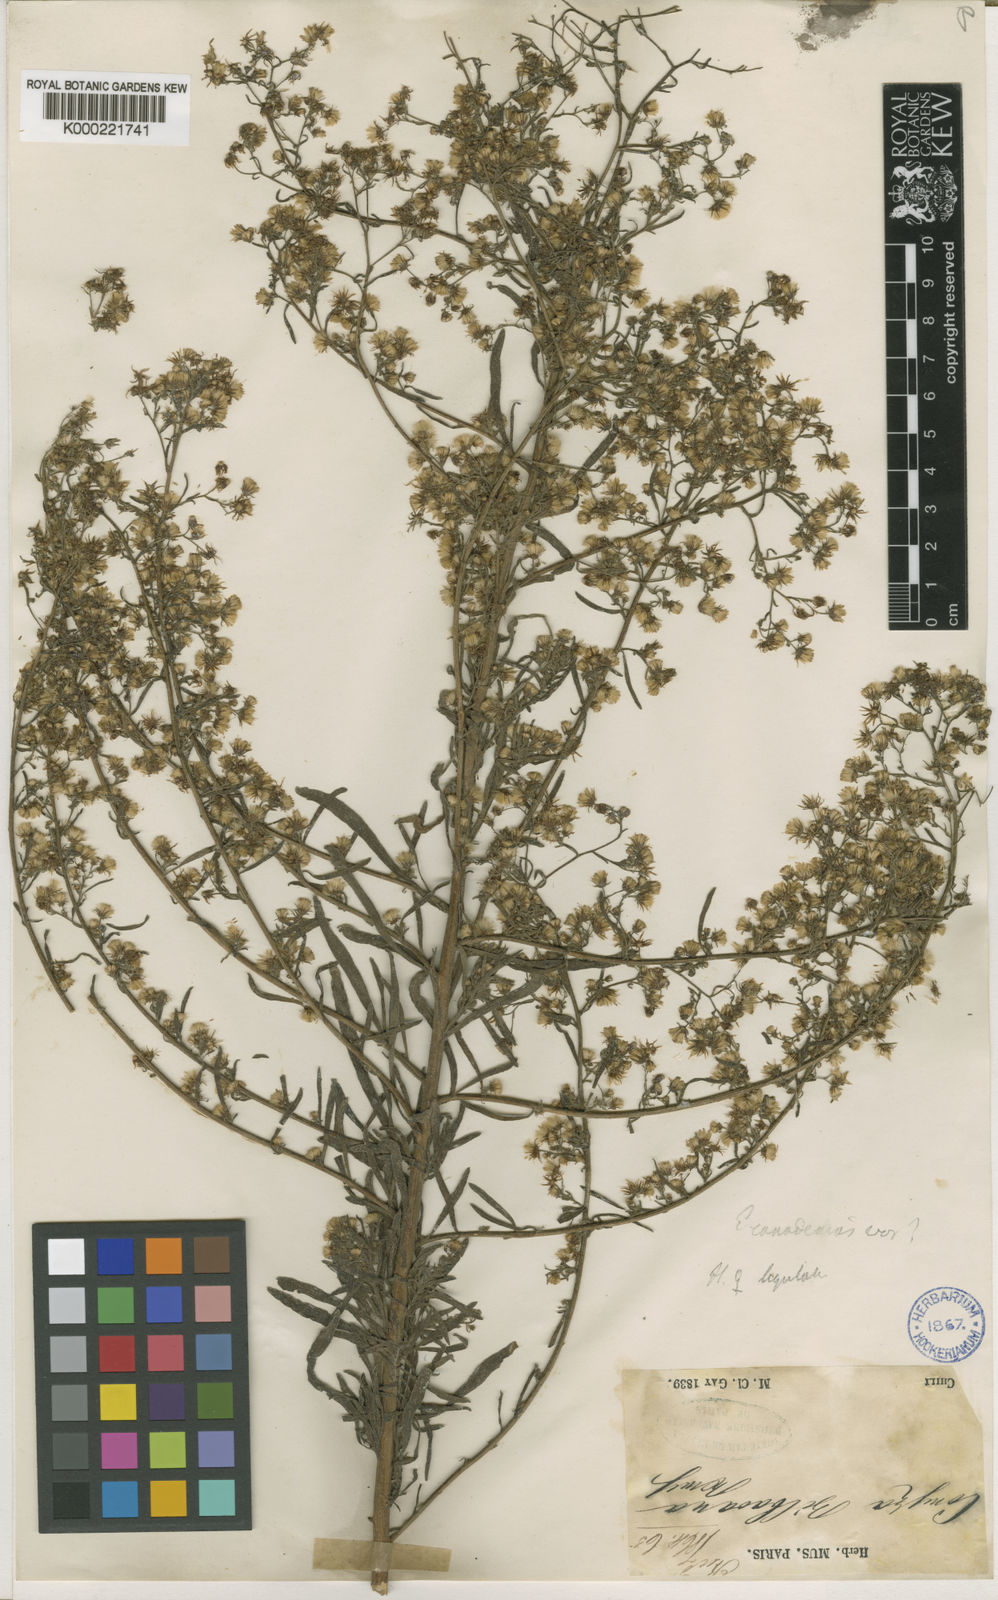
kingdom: Plantae
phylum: Tracheophyta
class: Magnoliopsida
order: Asterales
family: Asteraceae
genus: Erigeron
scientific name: Erigeron canadensis
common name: Canadian fleabane
